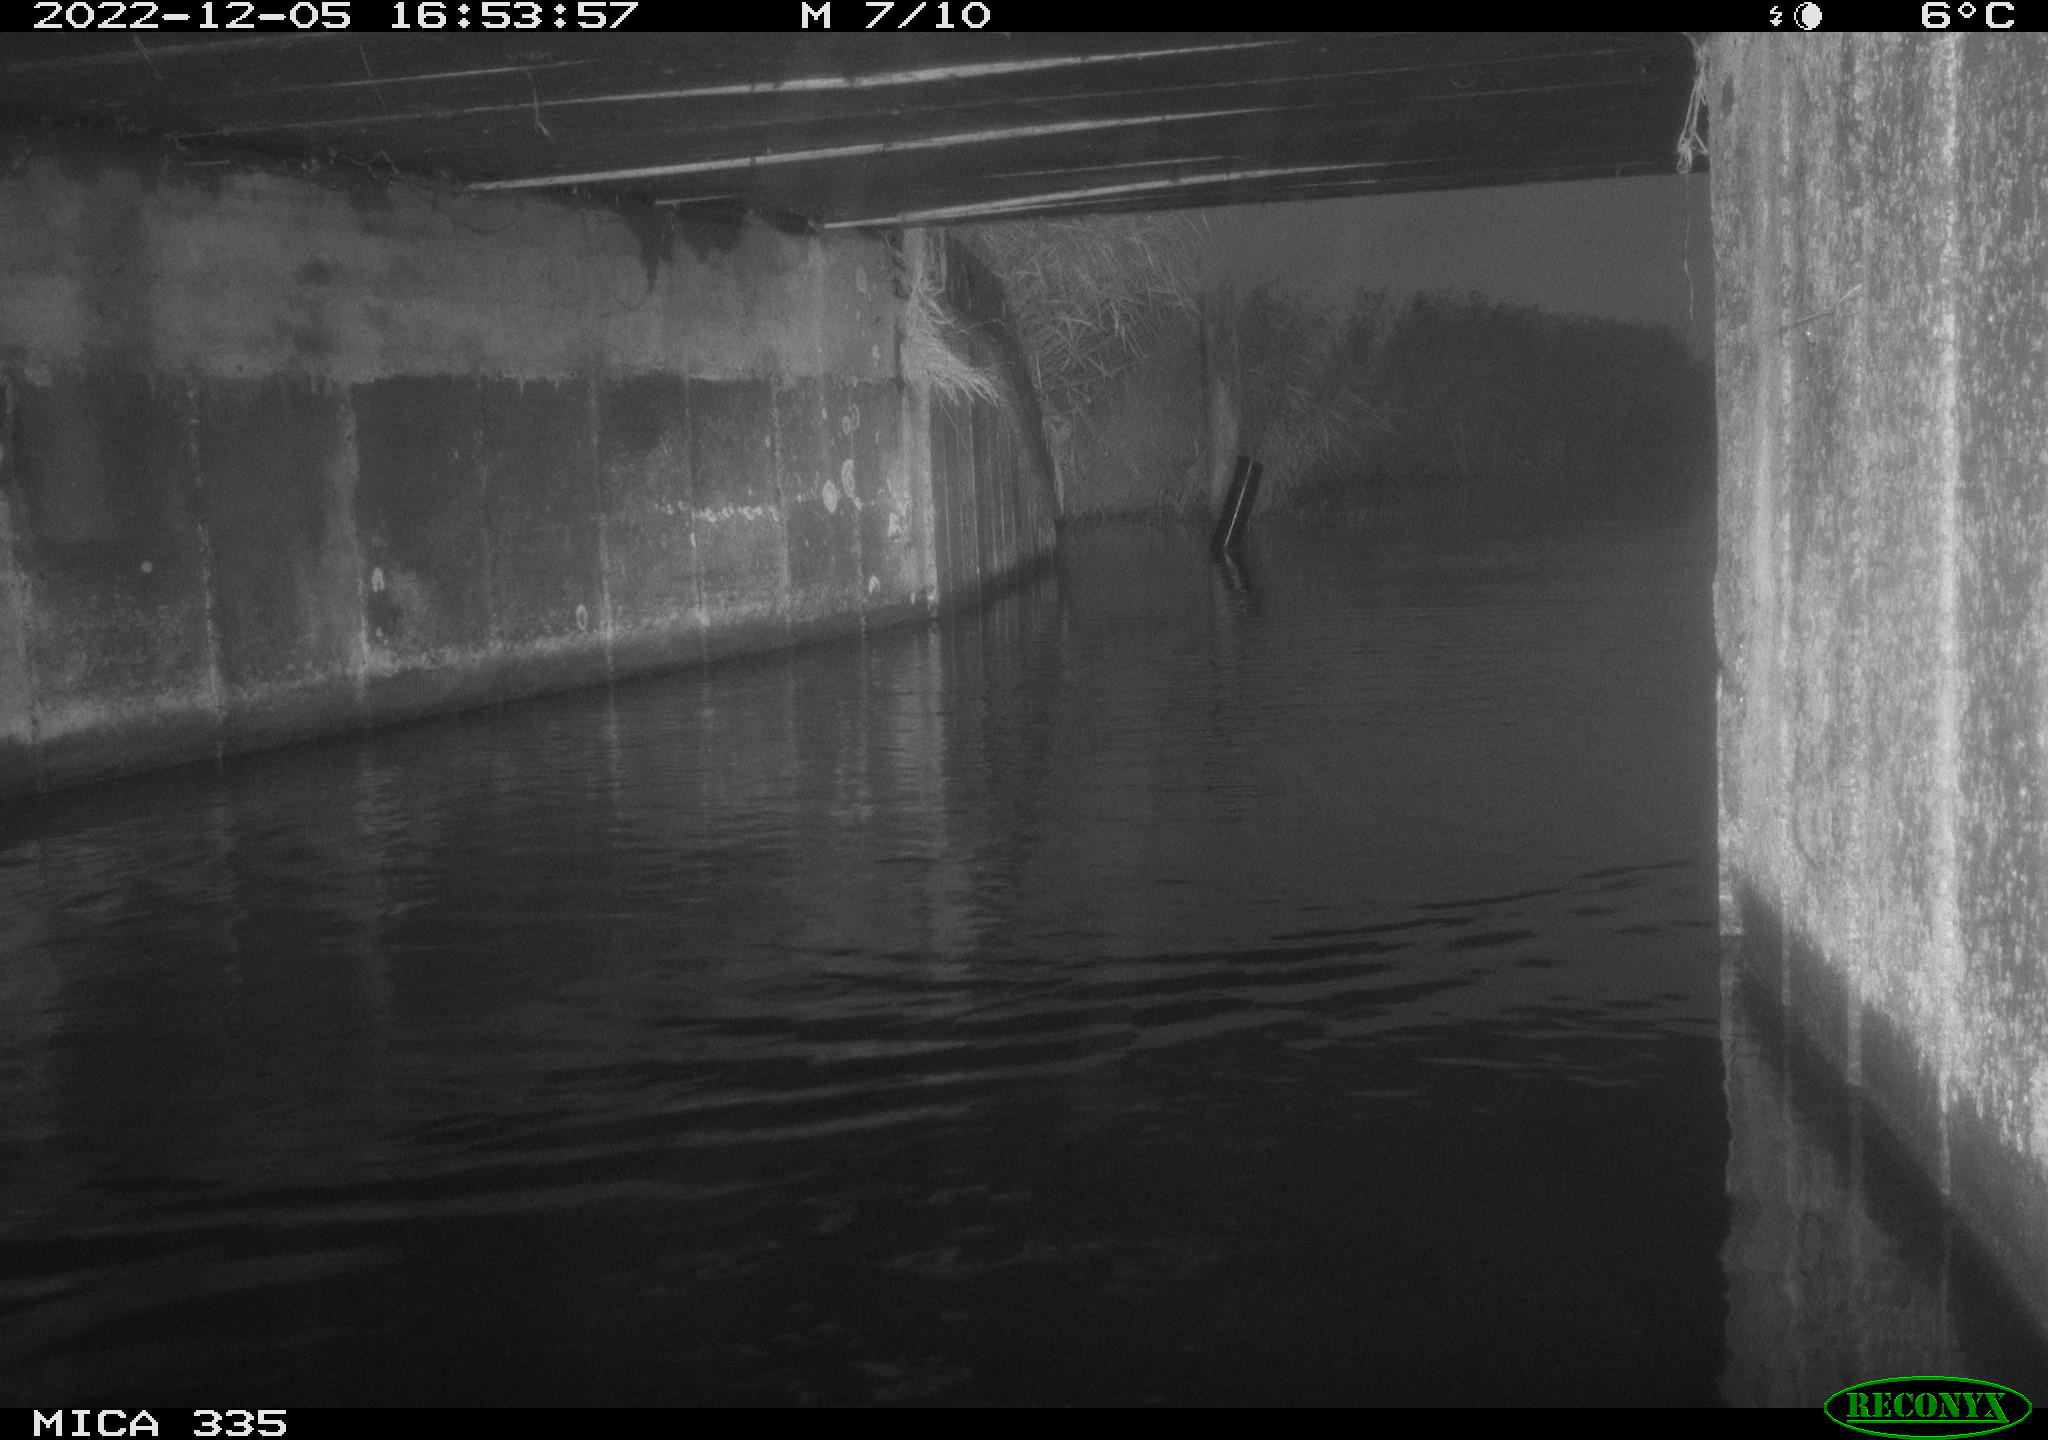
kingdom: Animalia
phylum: Chordata
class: Aves
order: Anseriformes
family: Anatidae
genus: Anas
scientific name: Anas
